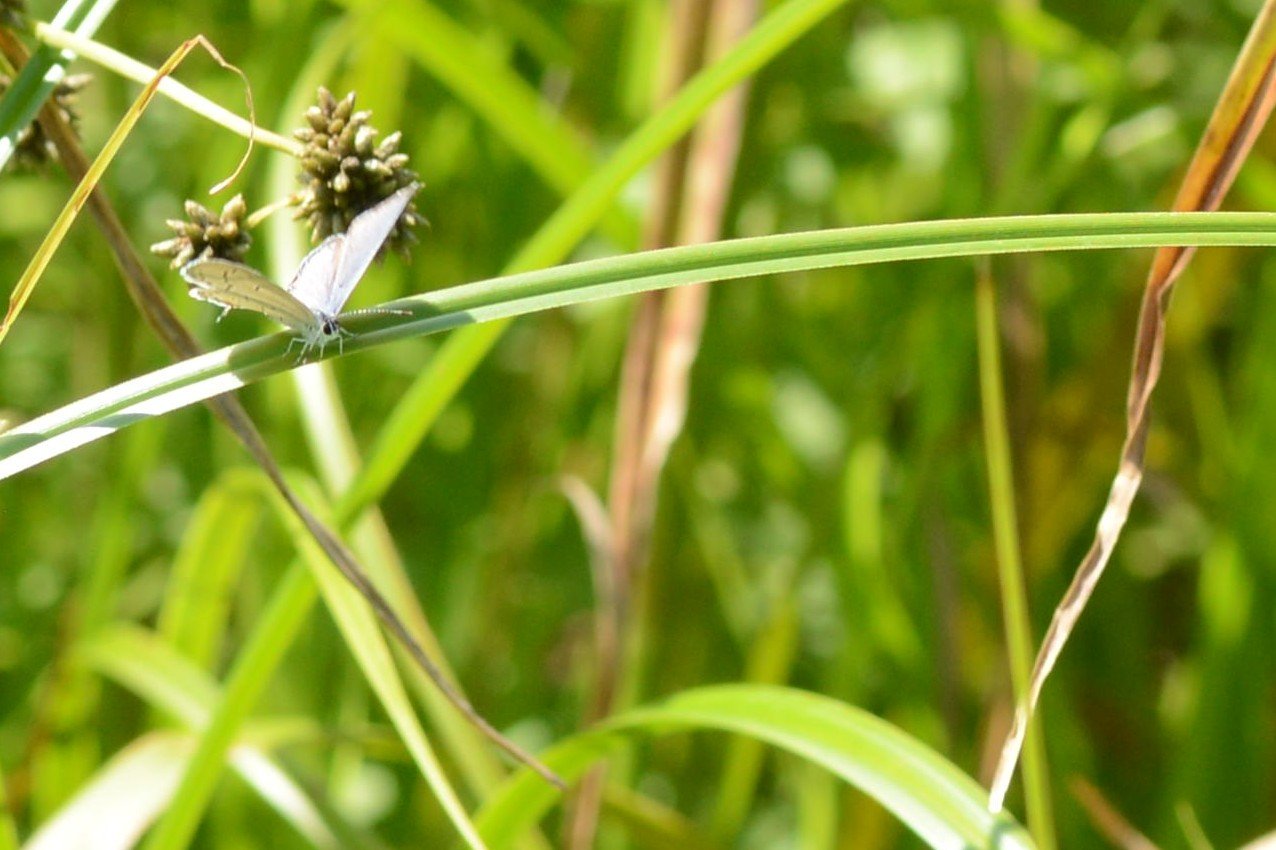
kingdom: Animalia
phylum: Arthropoda
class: Insecta
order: Lepidoptera
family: Lycaenidae
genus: Elkalyce
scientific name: Elkalyce comyntas
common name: Eastern Tailed-Blue
